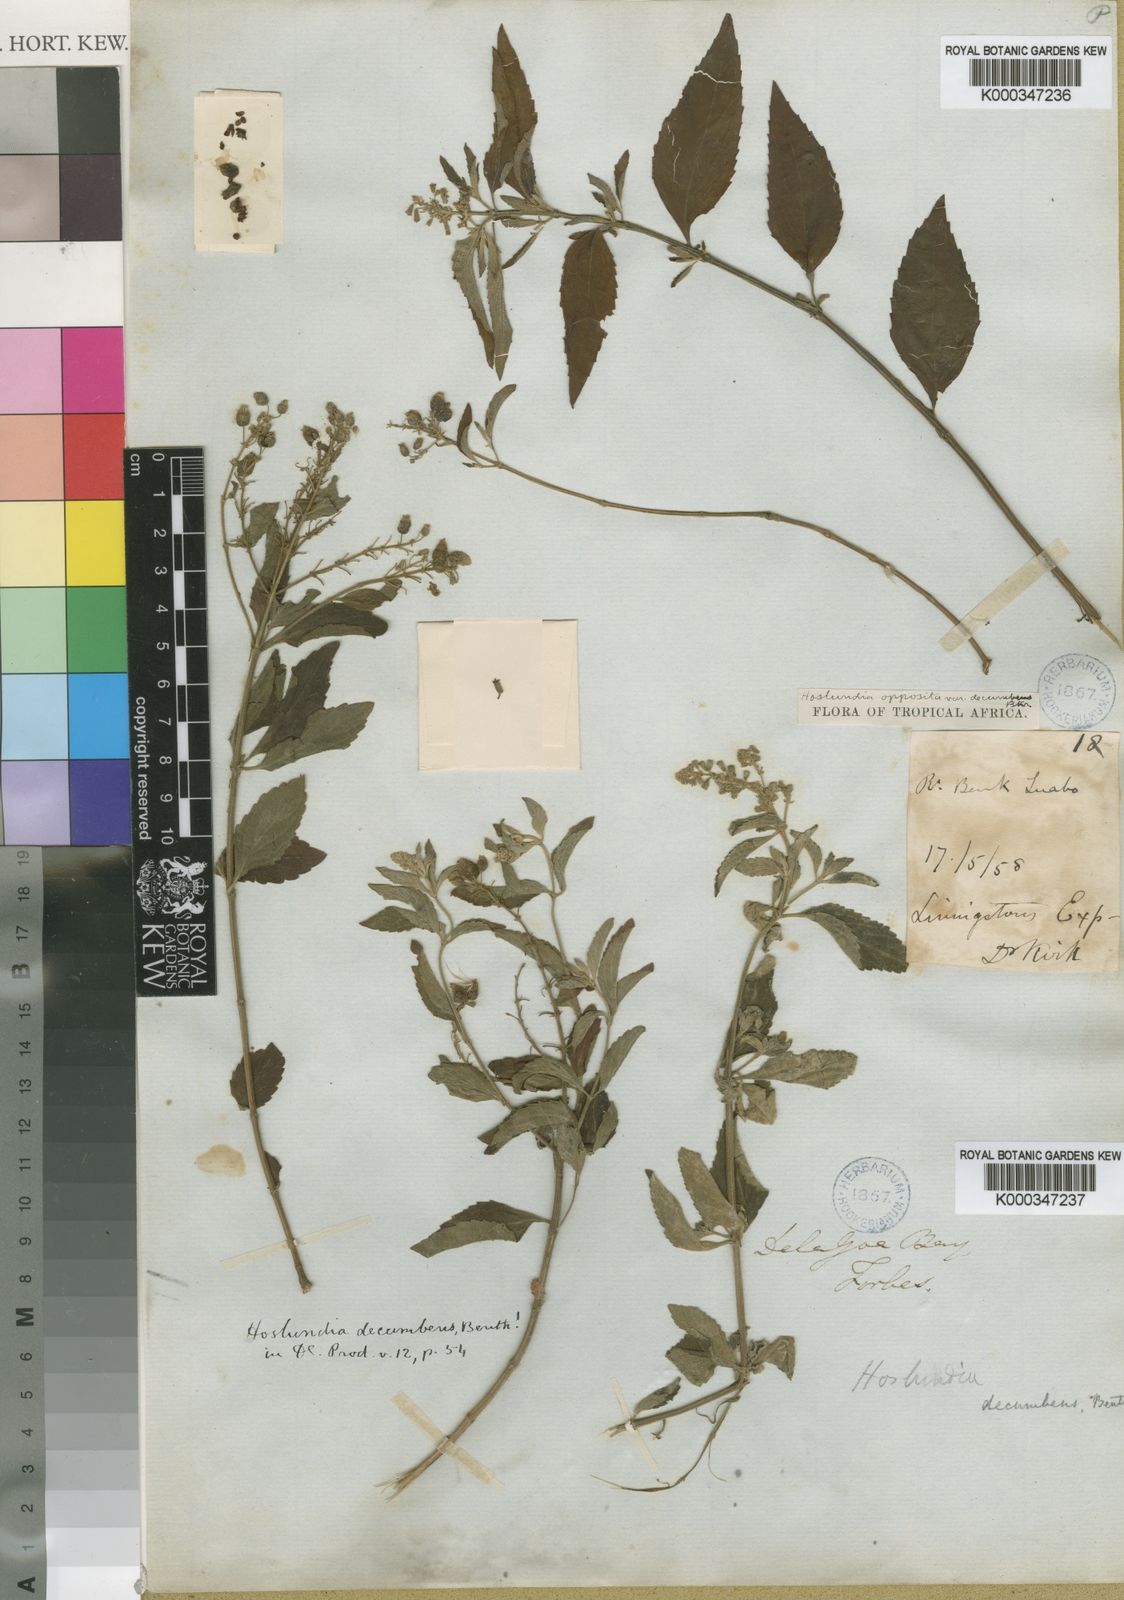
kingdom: Plantae
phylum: Tracheophyta
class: Magnoliopsida
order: Lamiales
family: Lamiaceae
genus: Hoslundia
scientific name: Hoslundia opposita
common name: Kamyuye
